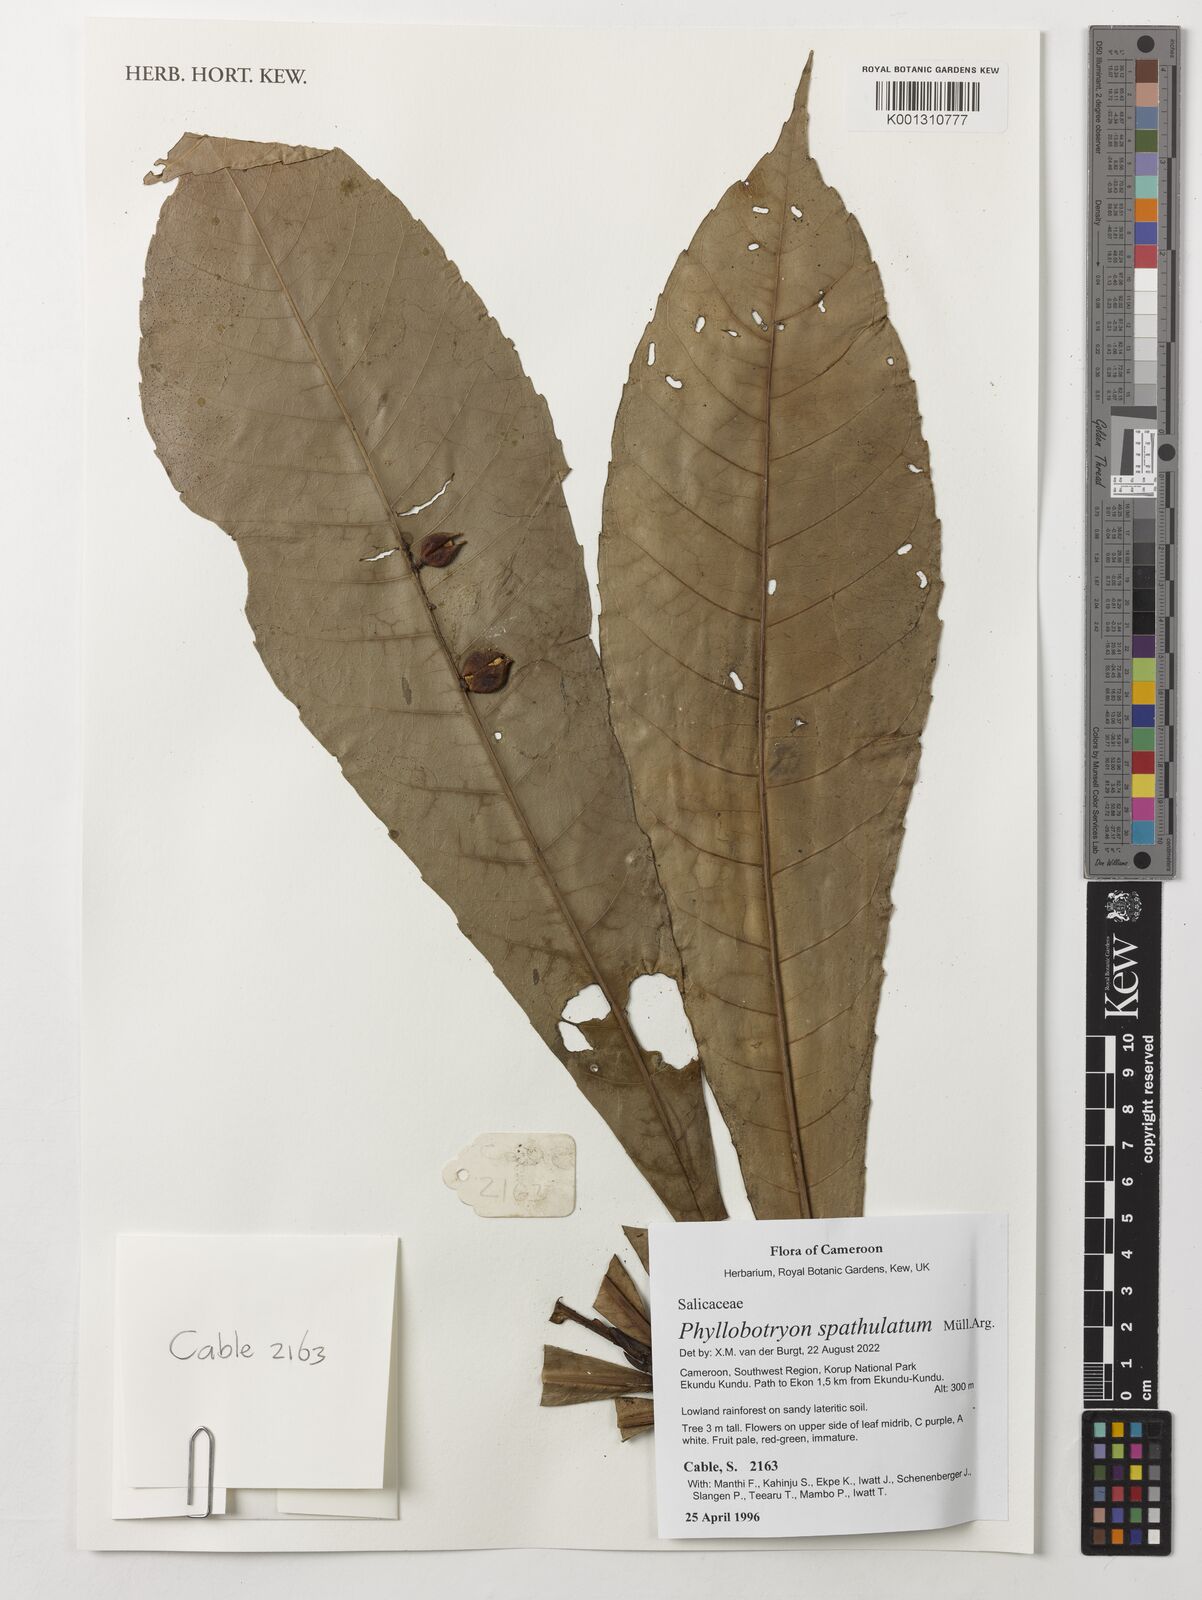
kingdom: Plantae
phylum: Tracheophyta
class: Magnoliopsida
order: Malpighiales
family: Salicaceae
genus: Phyllobotryon
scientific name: Phyllobotryon spathulatum
